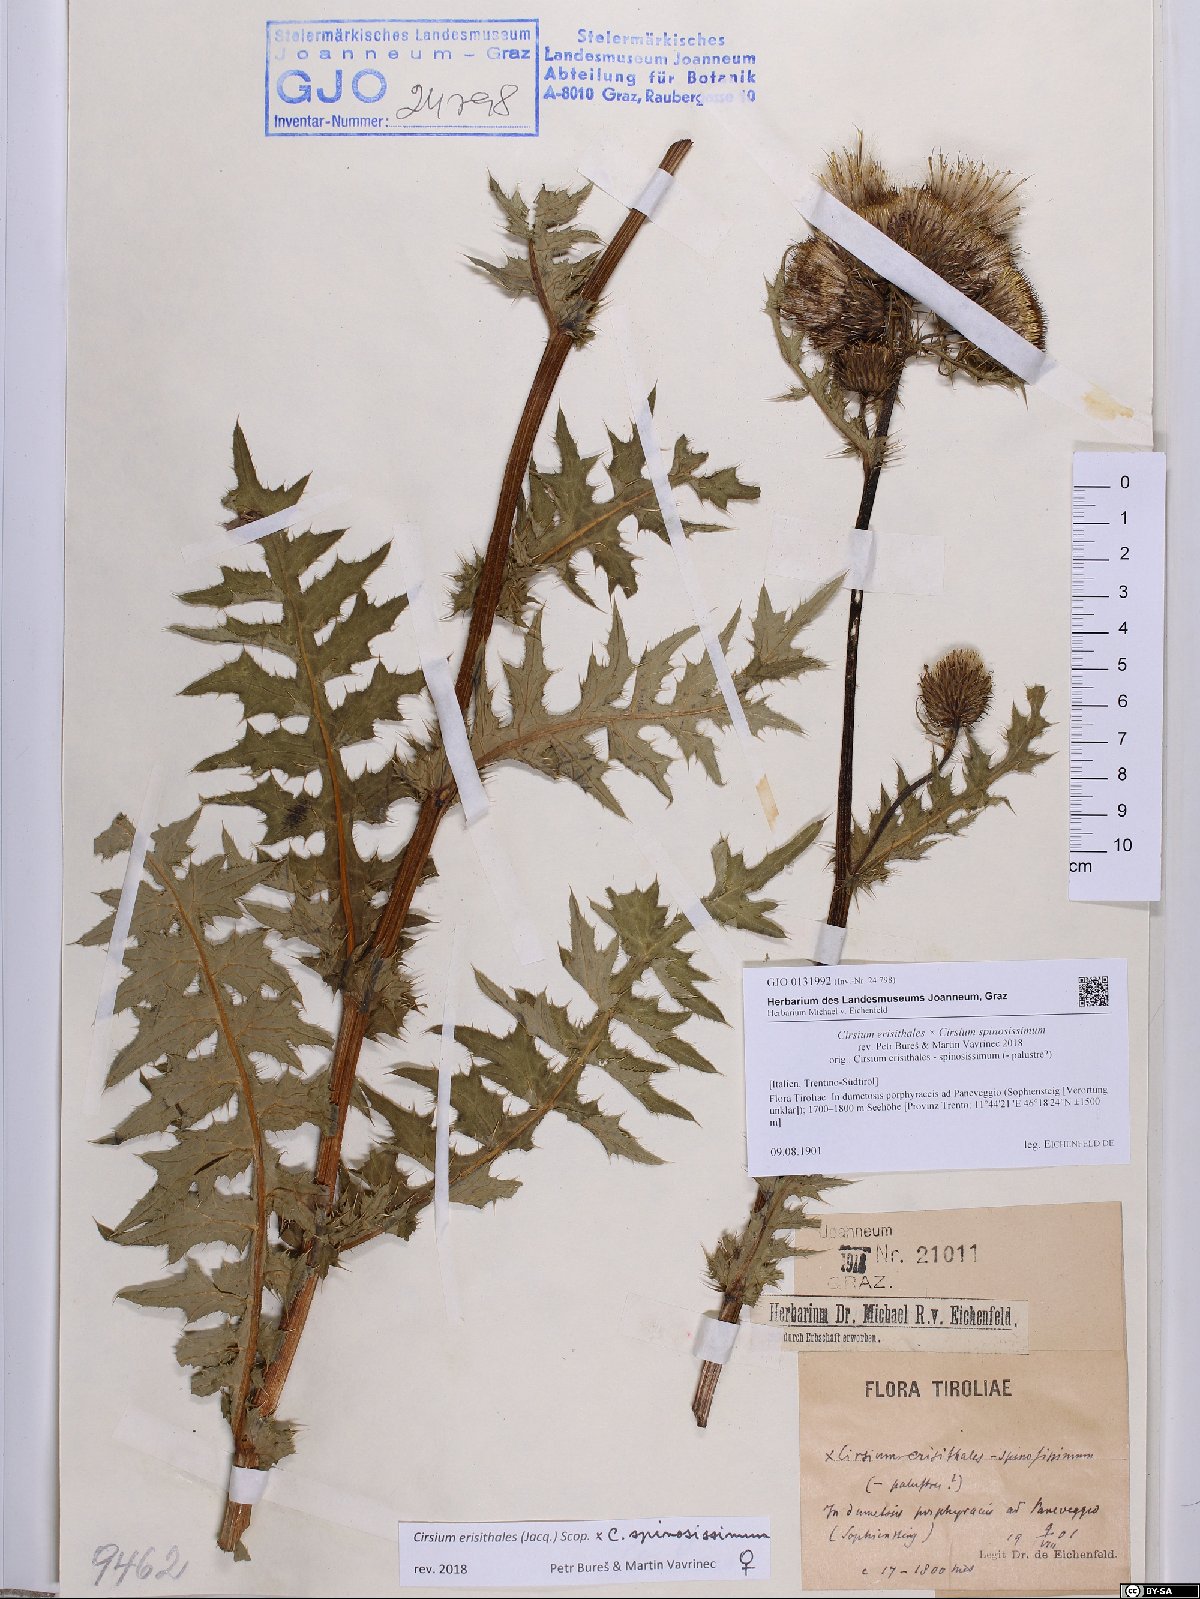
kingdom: Plantae
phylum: Tracheophyta
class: Magnoliopsida
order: Asterales
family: Asteraceae
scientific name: Asteraceae
